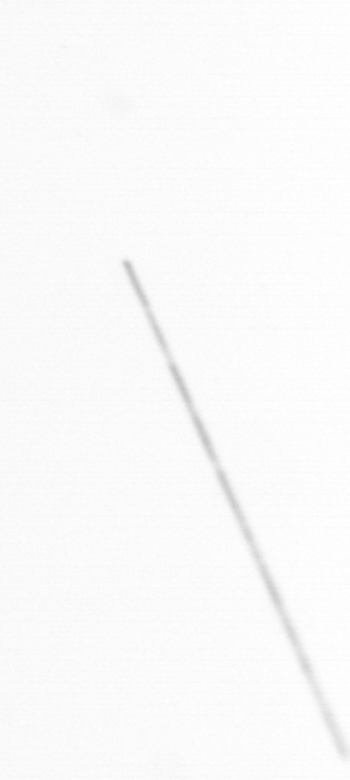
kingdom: Chromista
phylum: Ochrophyta
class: Bacillariophyceae
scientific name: Bacillariophyceae
